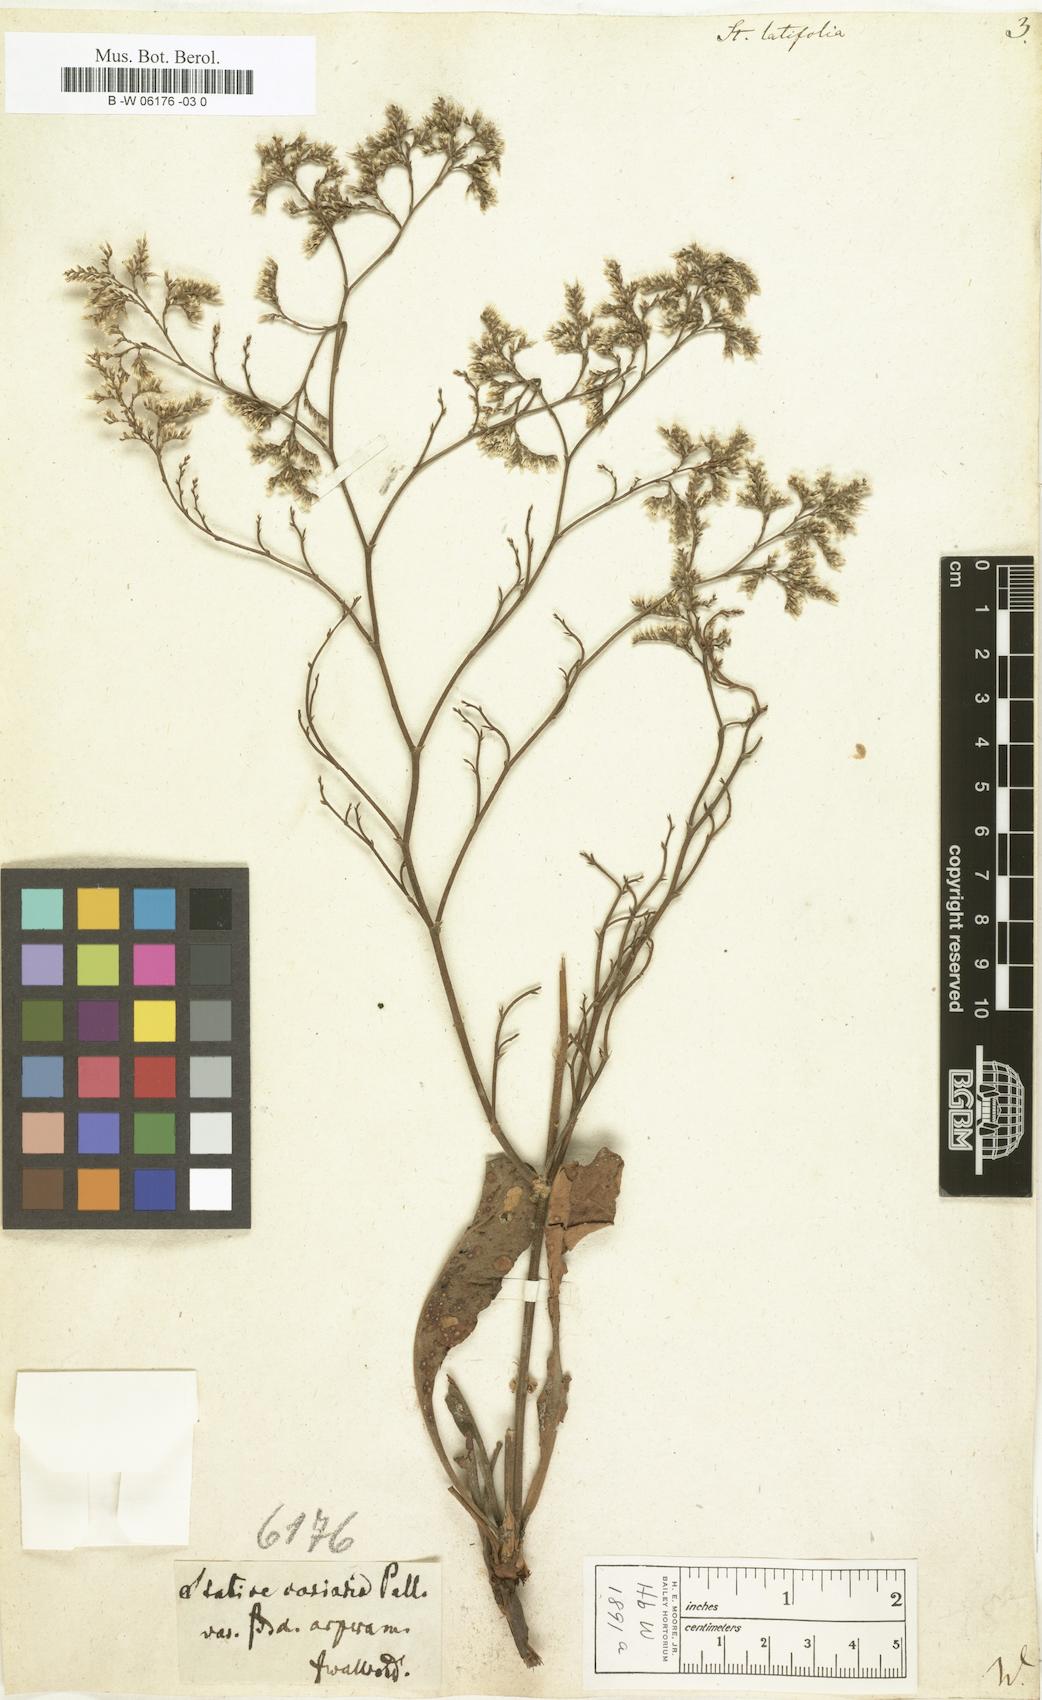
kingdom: Plantae
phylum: Tracheophyta
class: Magnoliopsida
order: Caryophyllales
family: Plumbaginaceae
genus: Limonium
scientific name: Limonium platyphyllum
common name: Florist's sea lavender
